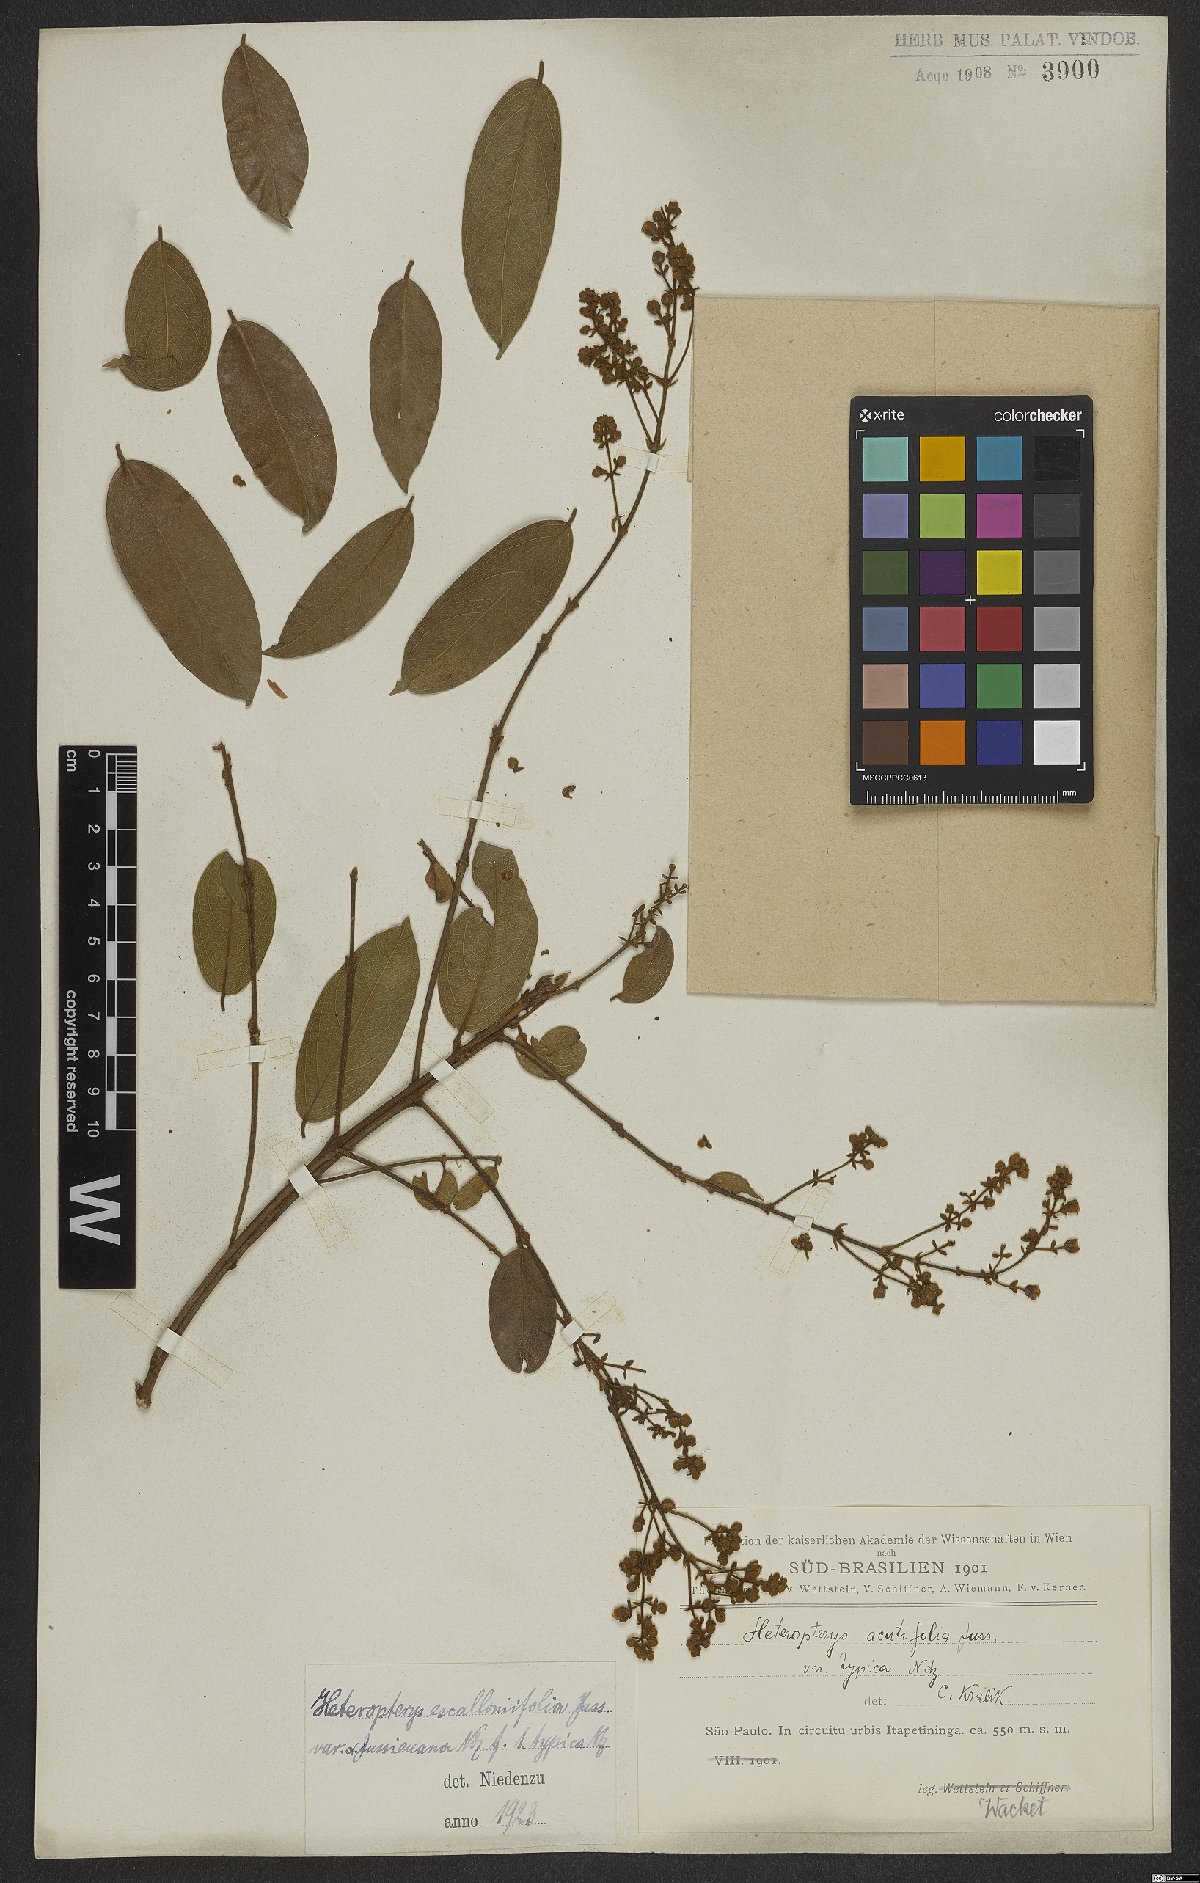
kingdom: Plantae
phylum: Tracheophyta
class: Magnoliopsida
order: Malpighiales
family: Malpighiaceae
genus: Heteropterys
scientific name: Heteropterys escalloniifolia
